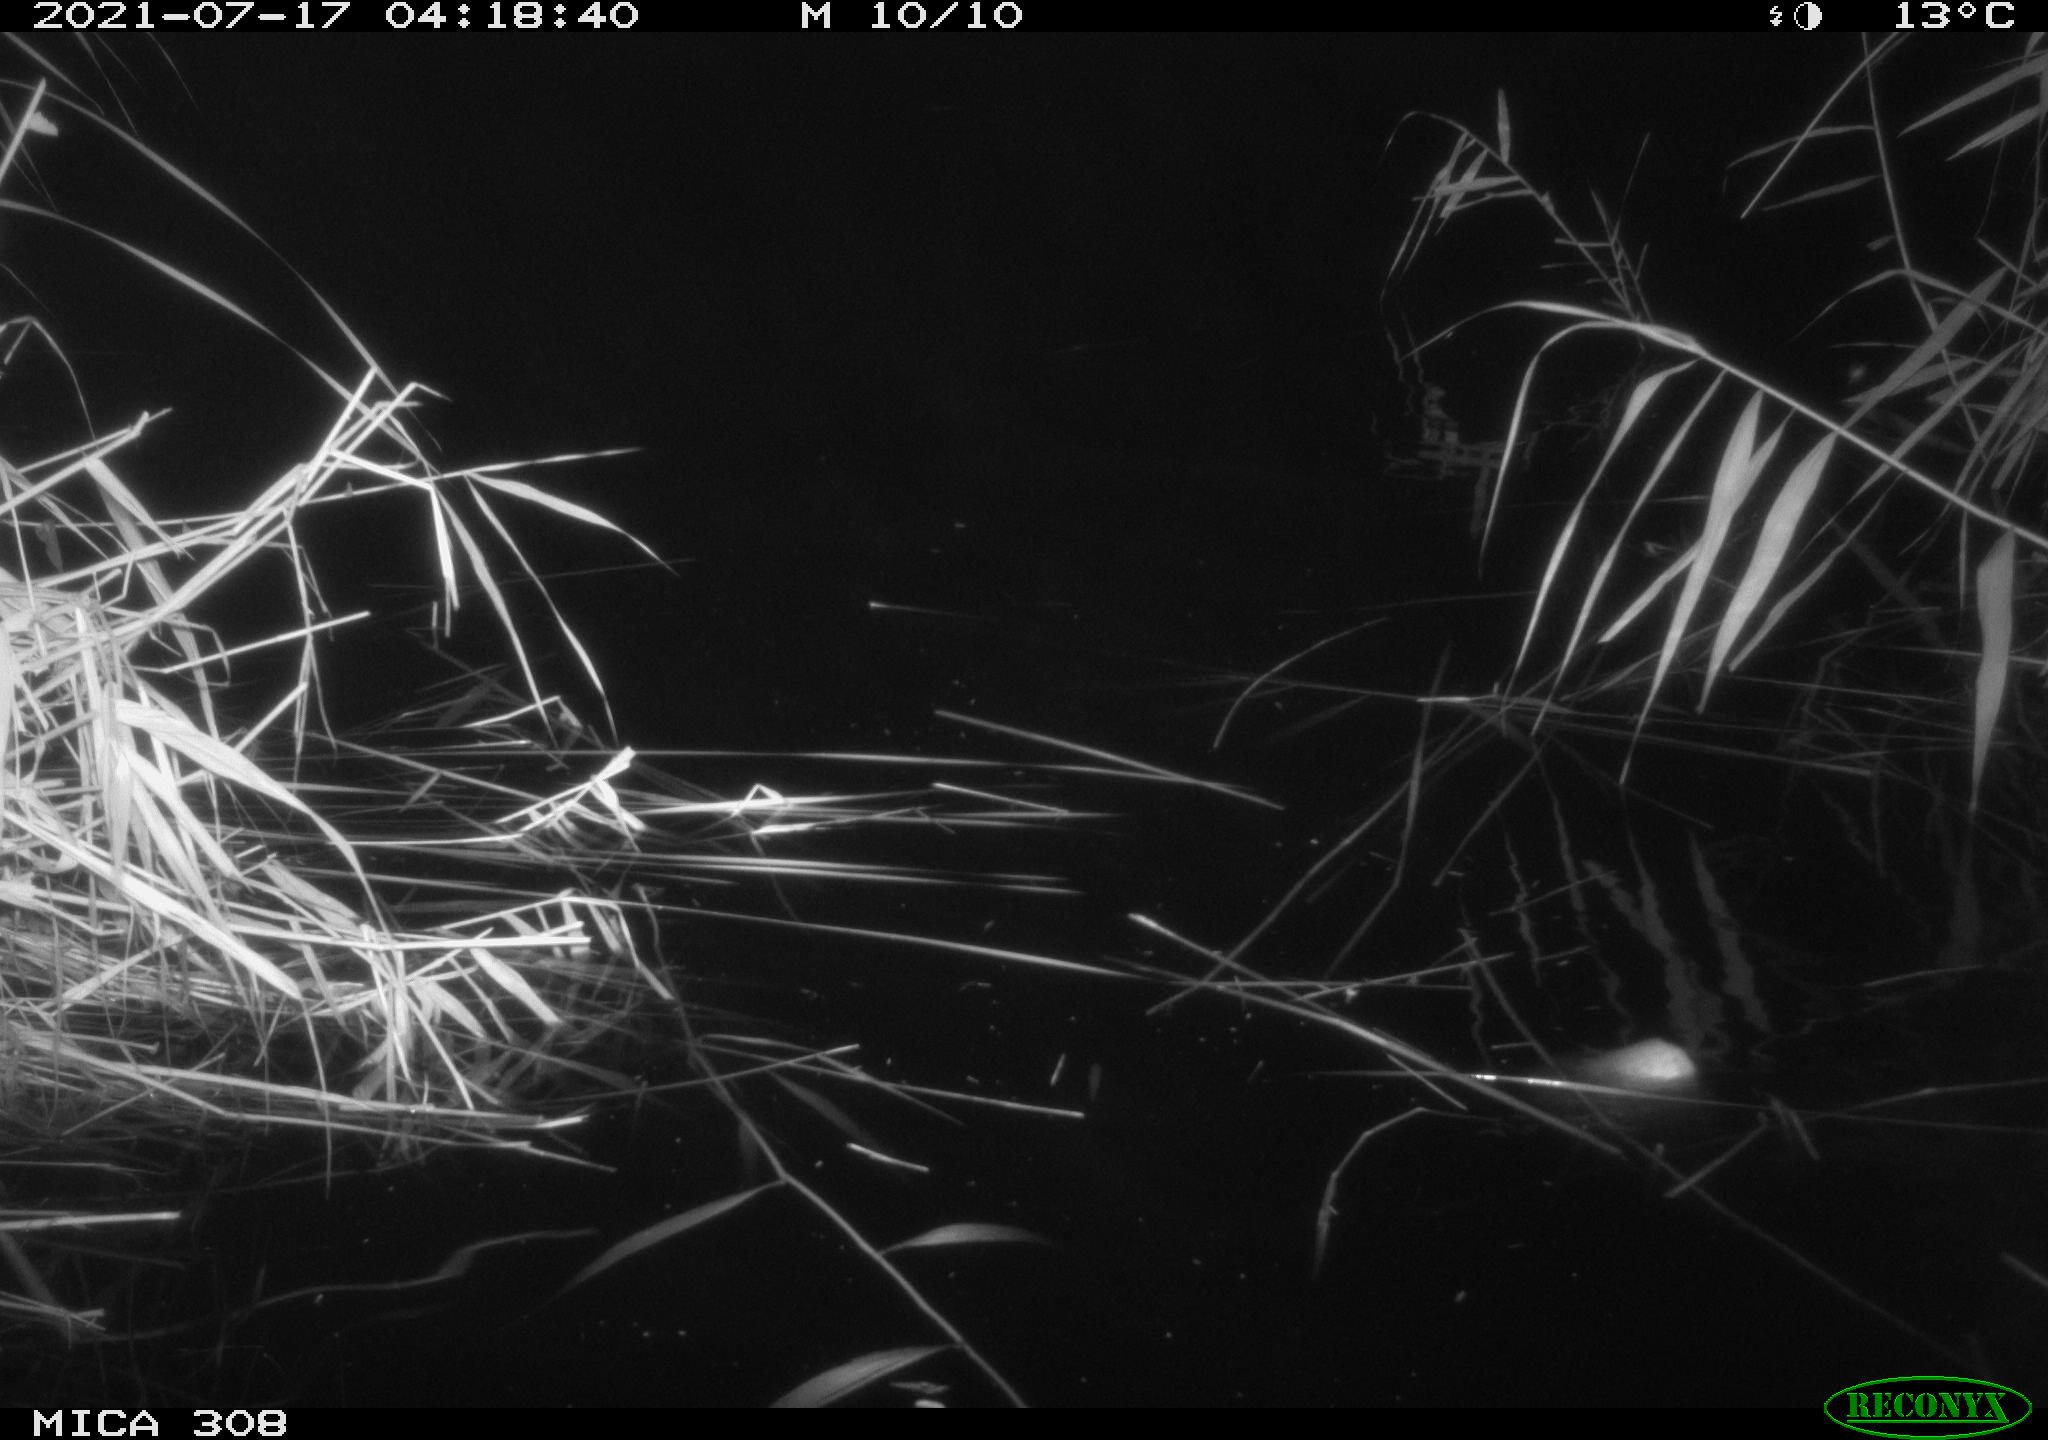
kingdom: Animalia
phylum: Chordata
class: Aves
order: Anseriformes
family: Anatidae
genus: Anas
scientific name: Anas platyrhynchos
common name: Mallard
